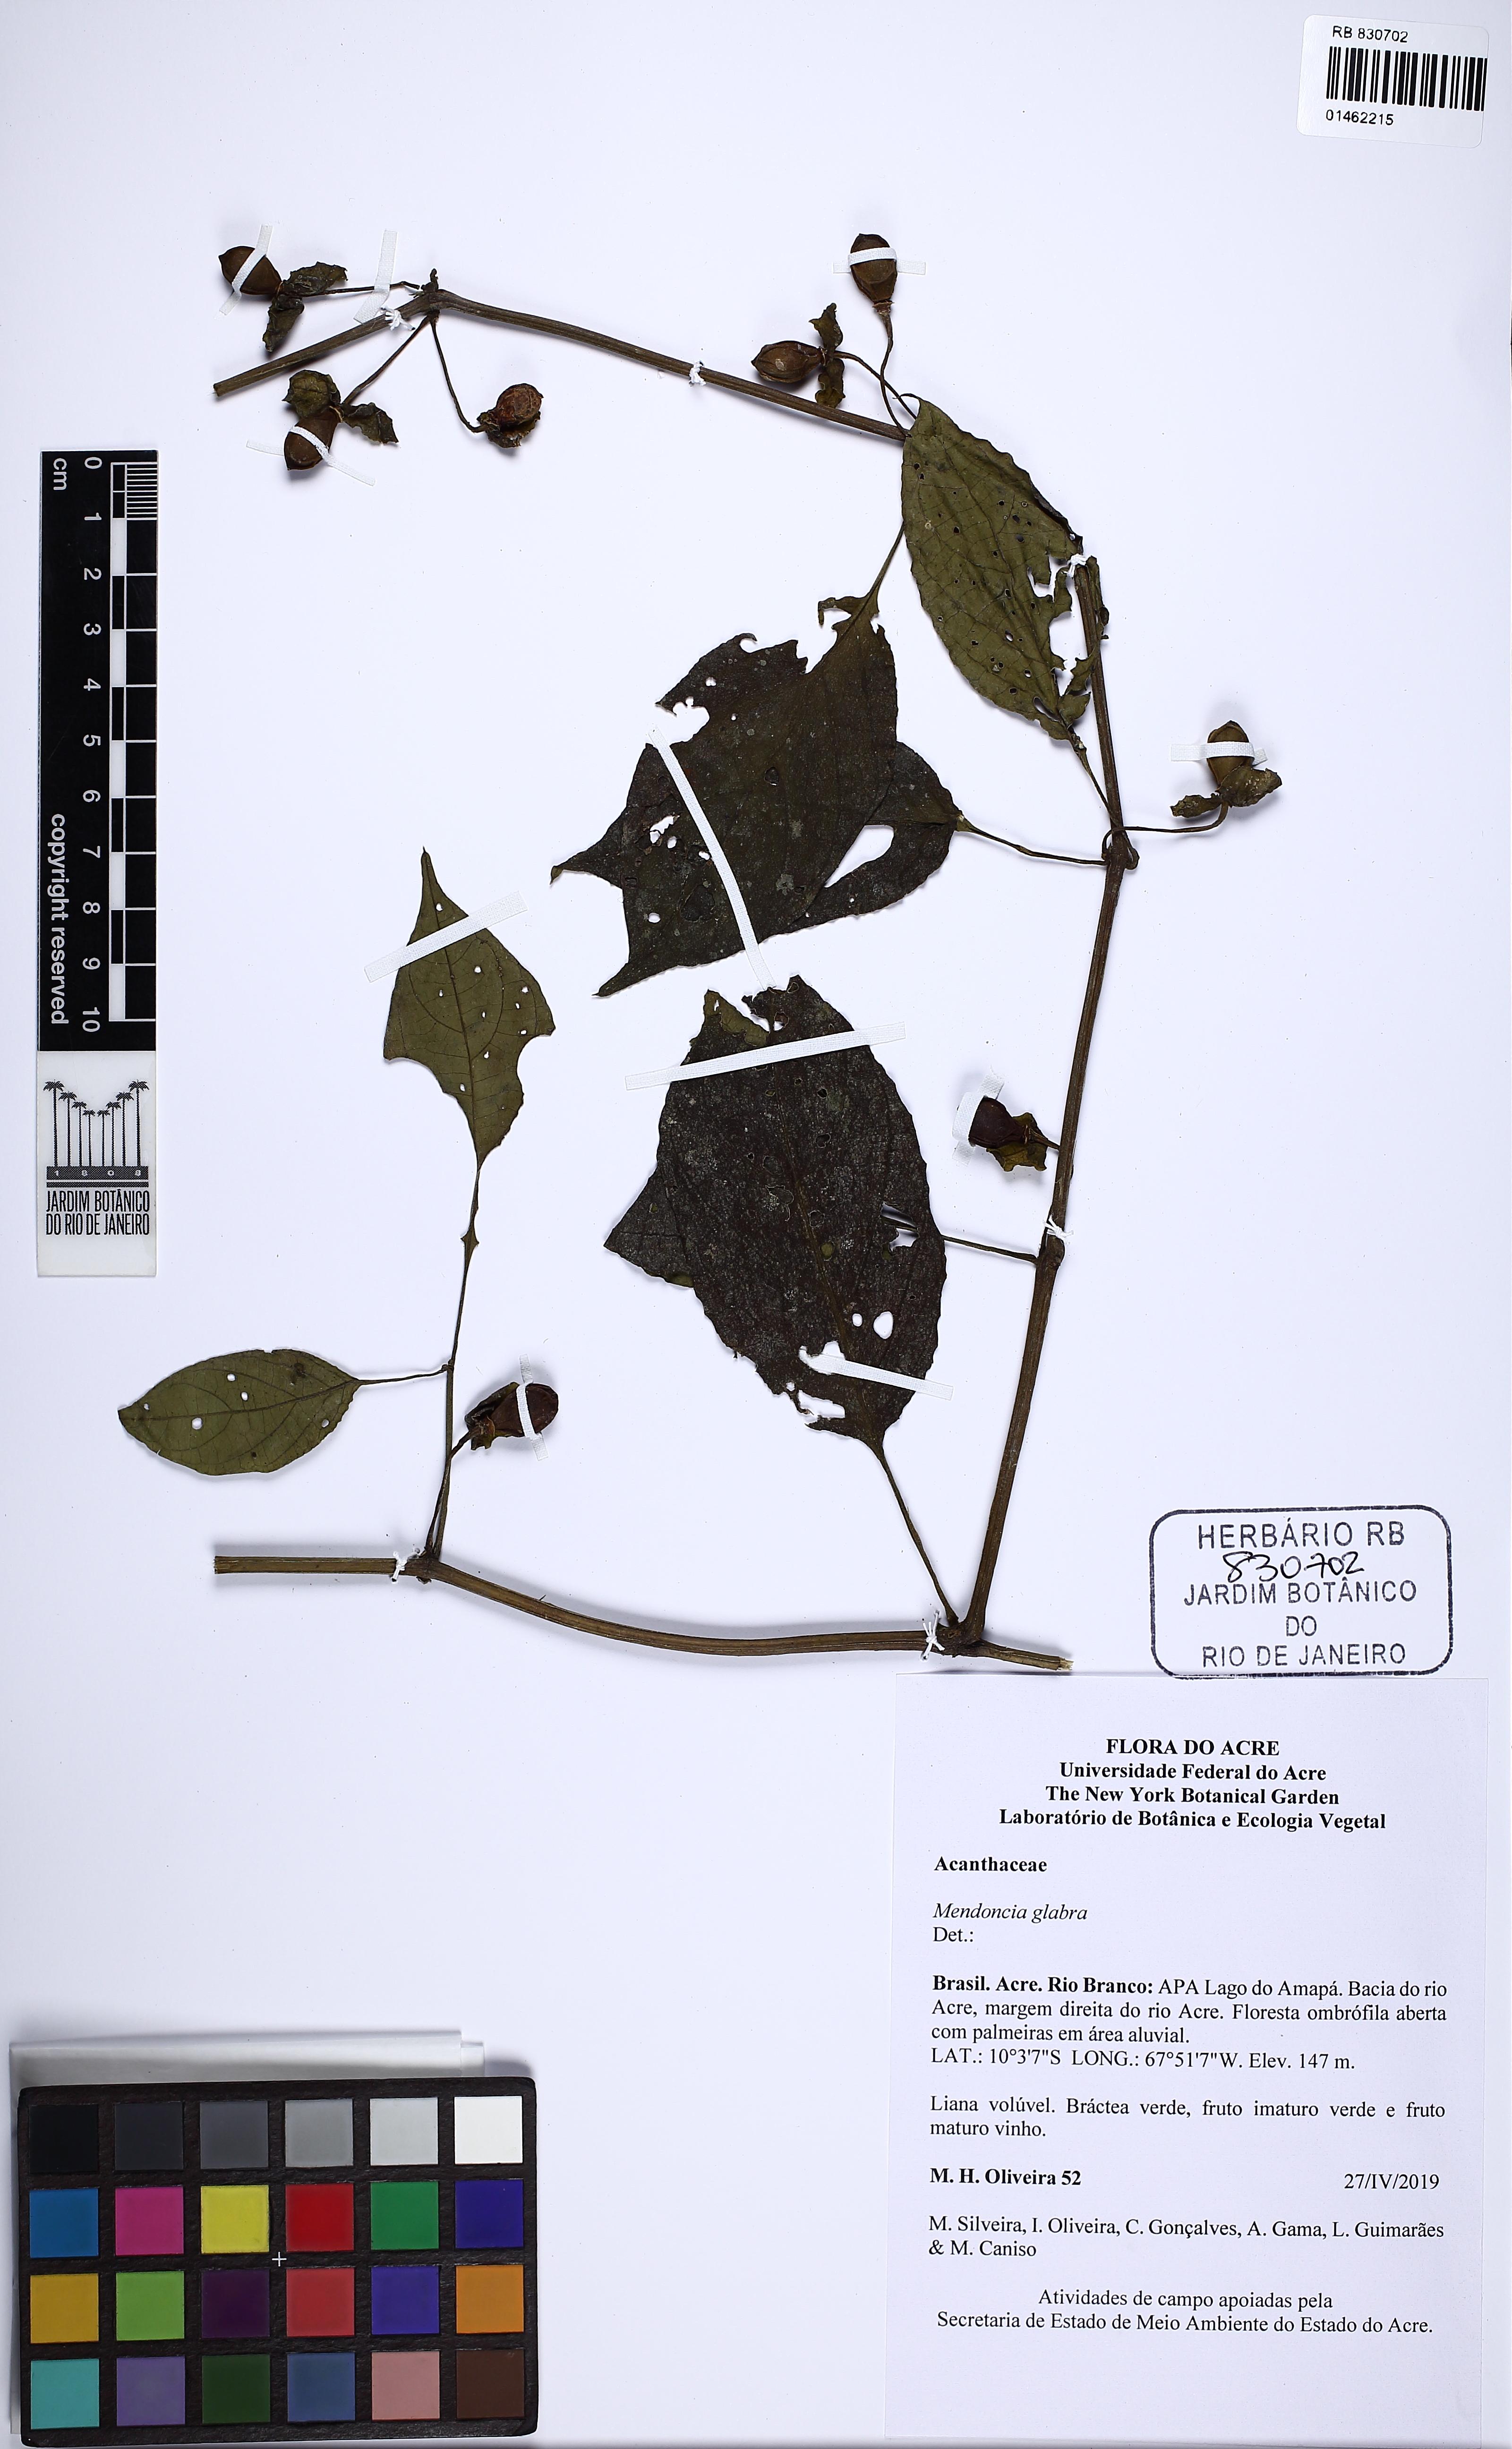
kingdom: Plantae
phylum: Tracheophyta
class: Magnoliopsida
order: Lamiales
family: Acanthaceae
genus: Mendoncia
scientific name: Mendoncia glabra
